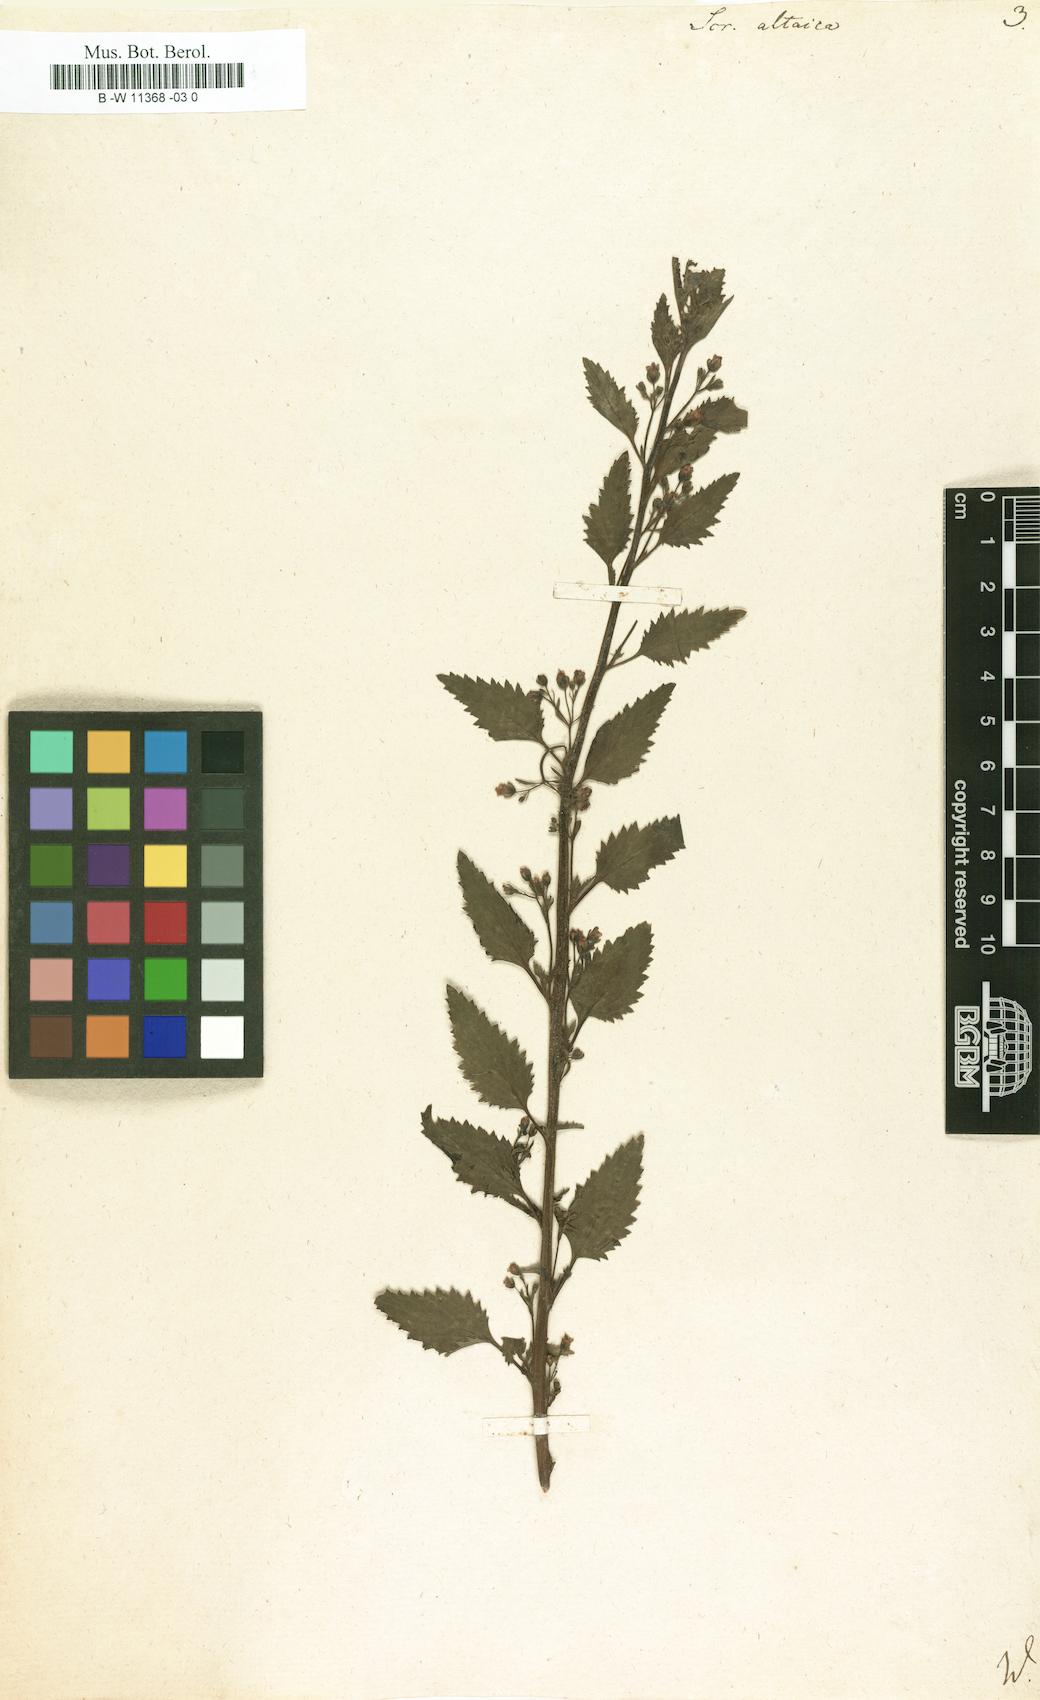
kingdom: Plantae
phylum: Tracheophyta
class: Magnoliopsida
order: Lamiales
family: Scrophulariaceae
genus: Scrophularia
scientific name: Scrophularia altaica
